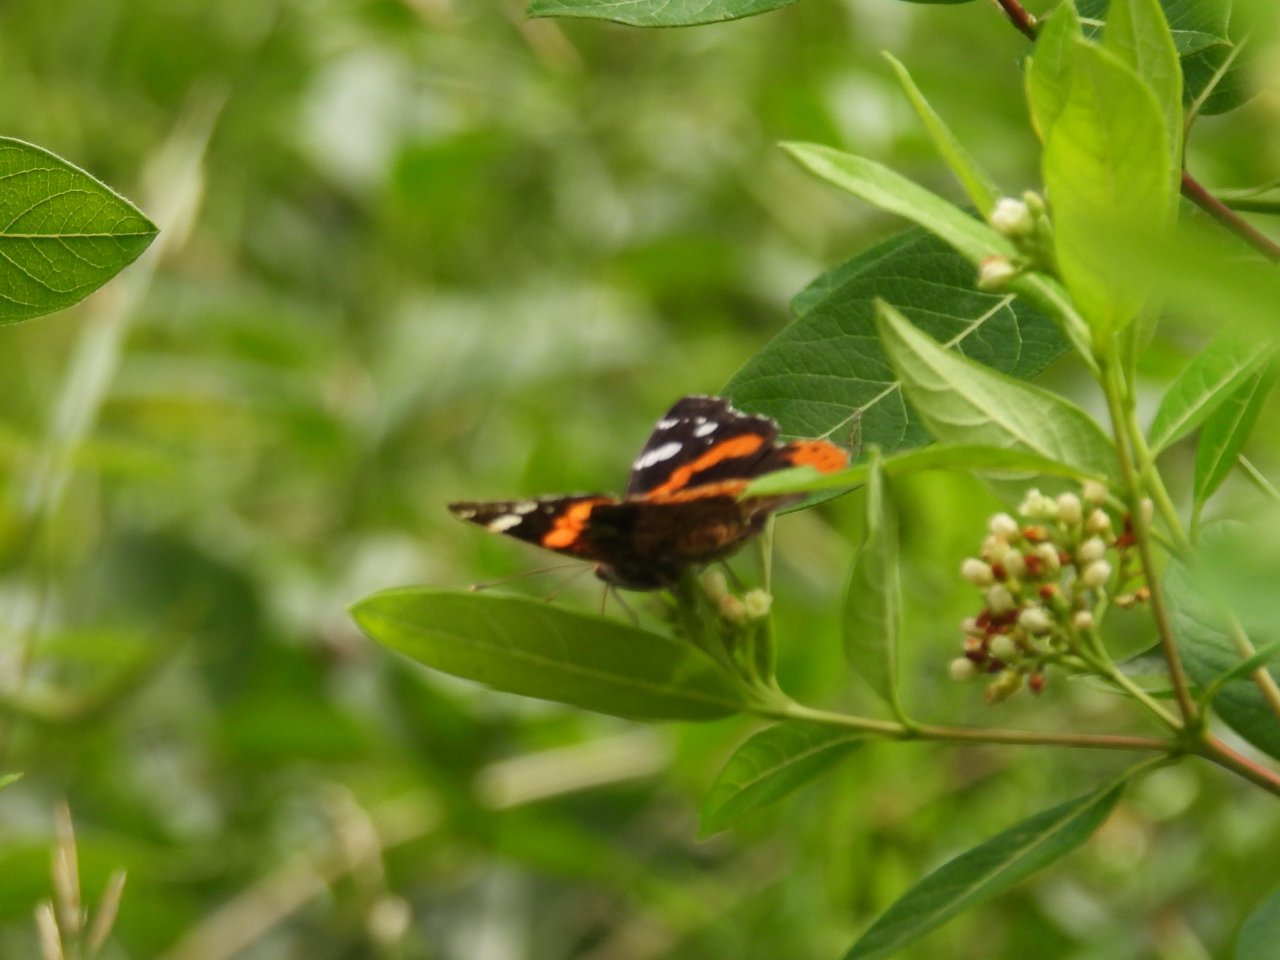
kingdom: Animalia
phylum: Arthropoda
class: Insecta
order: Lepidoptera
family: Nymphalidae
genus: Vanessa
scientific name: Vanessa atalanta
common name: Red Admiral
